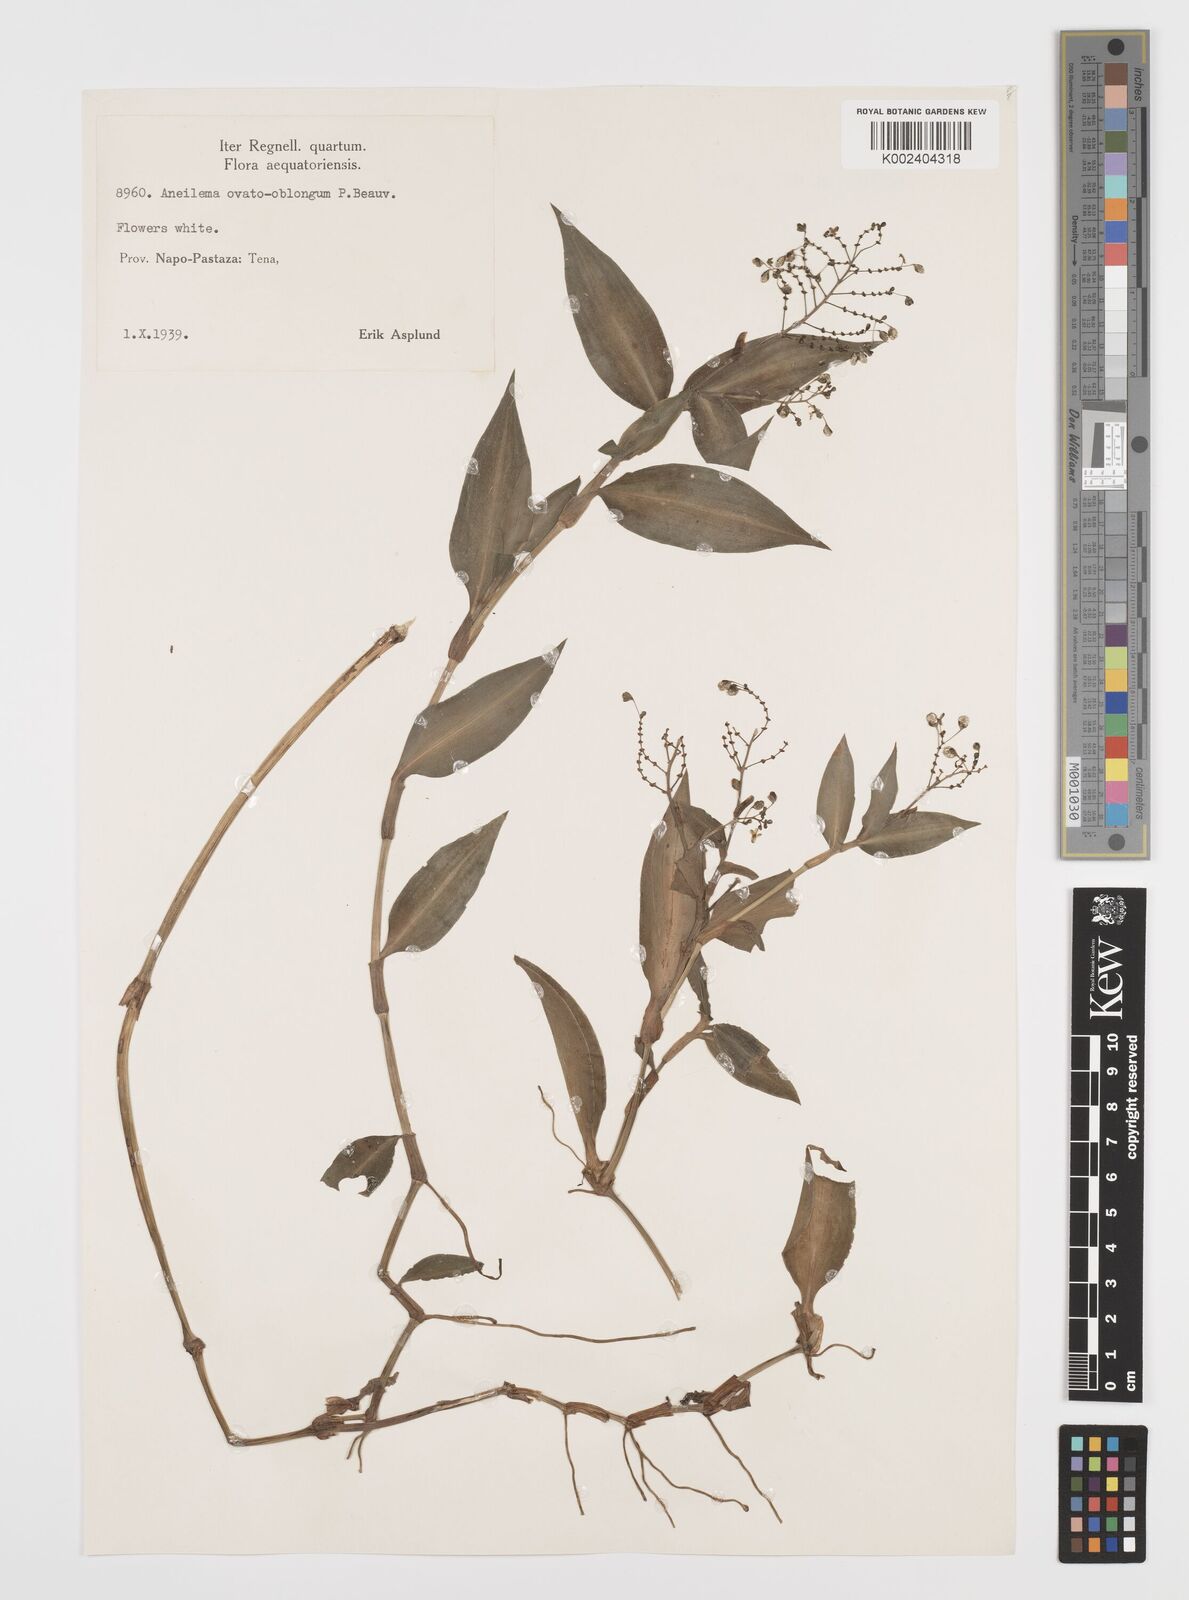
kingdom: Plantae
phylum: Tracheophyta
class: Liliopsida
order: Commelinales
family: Commelinaceae
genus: Aneilema
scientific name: Aneilema umbrosum
